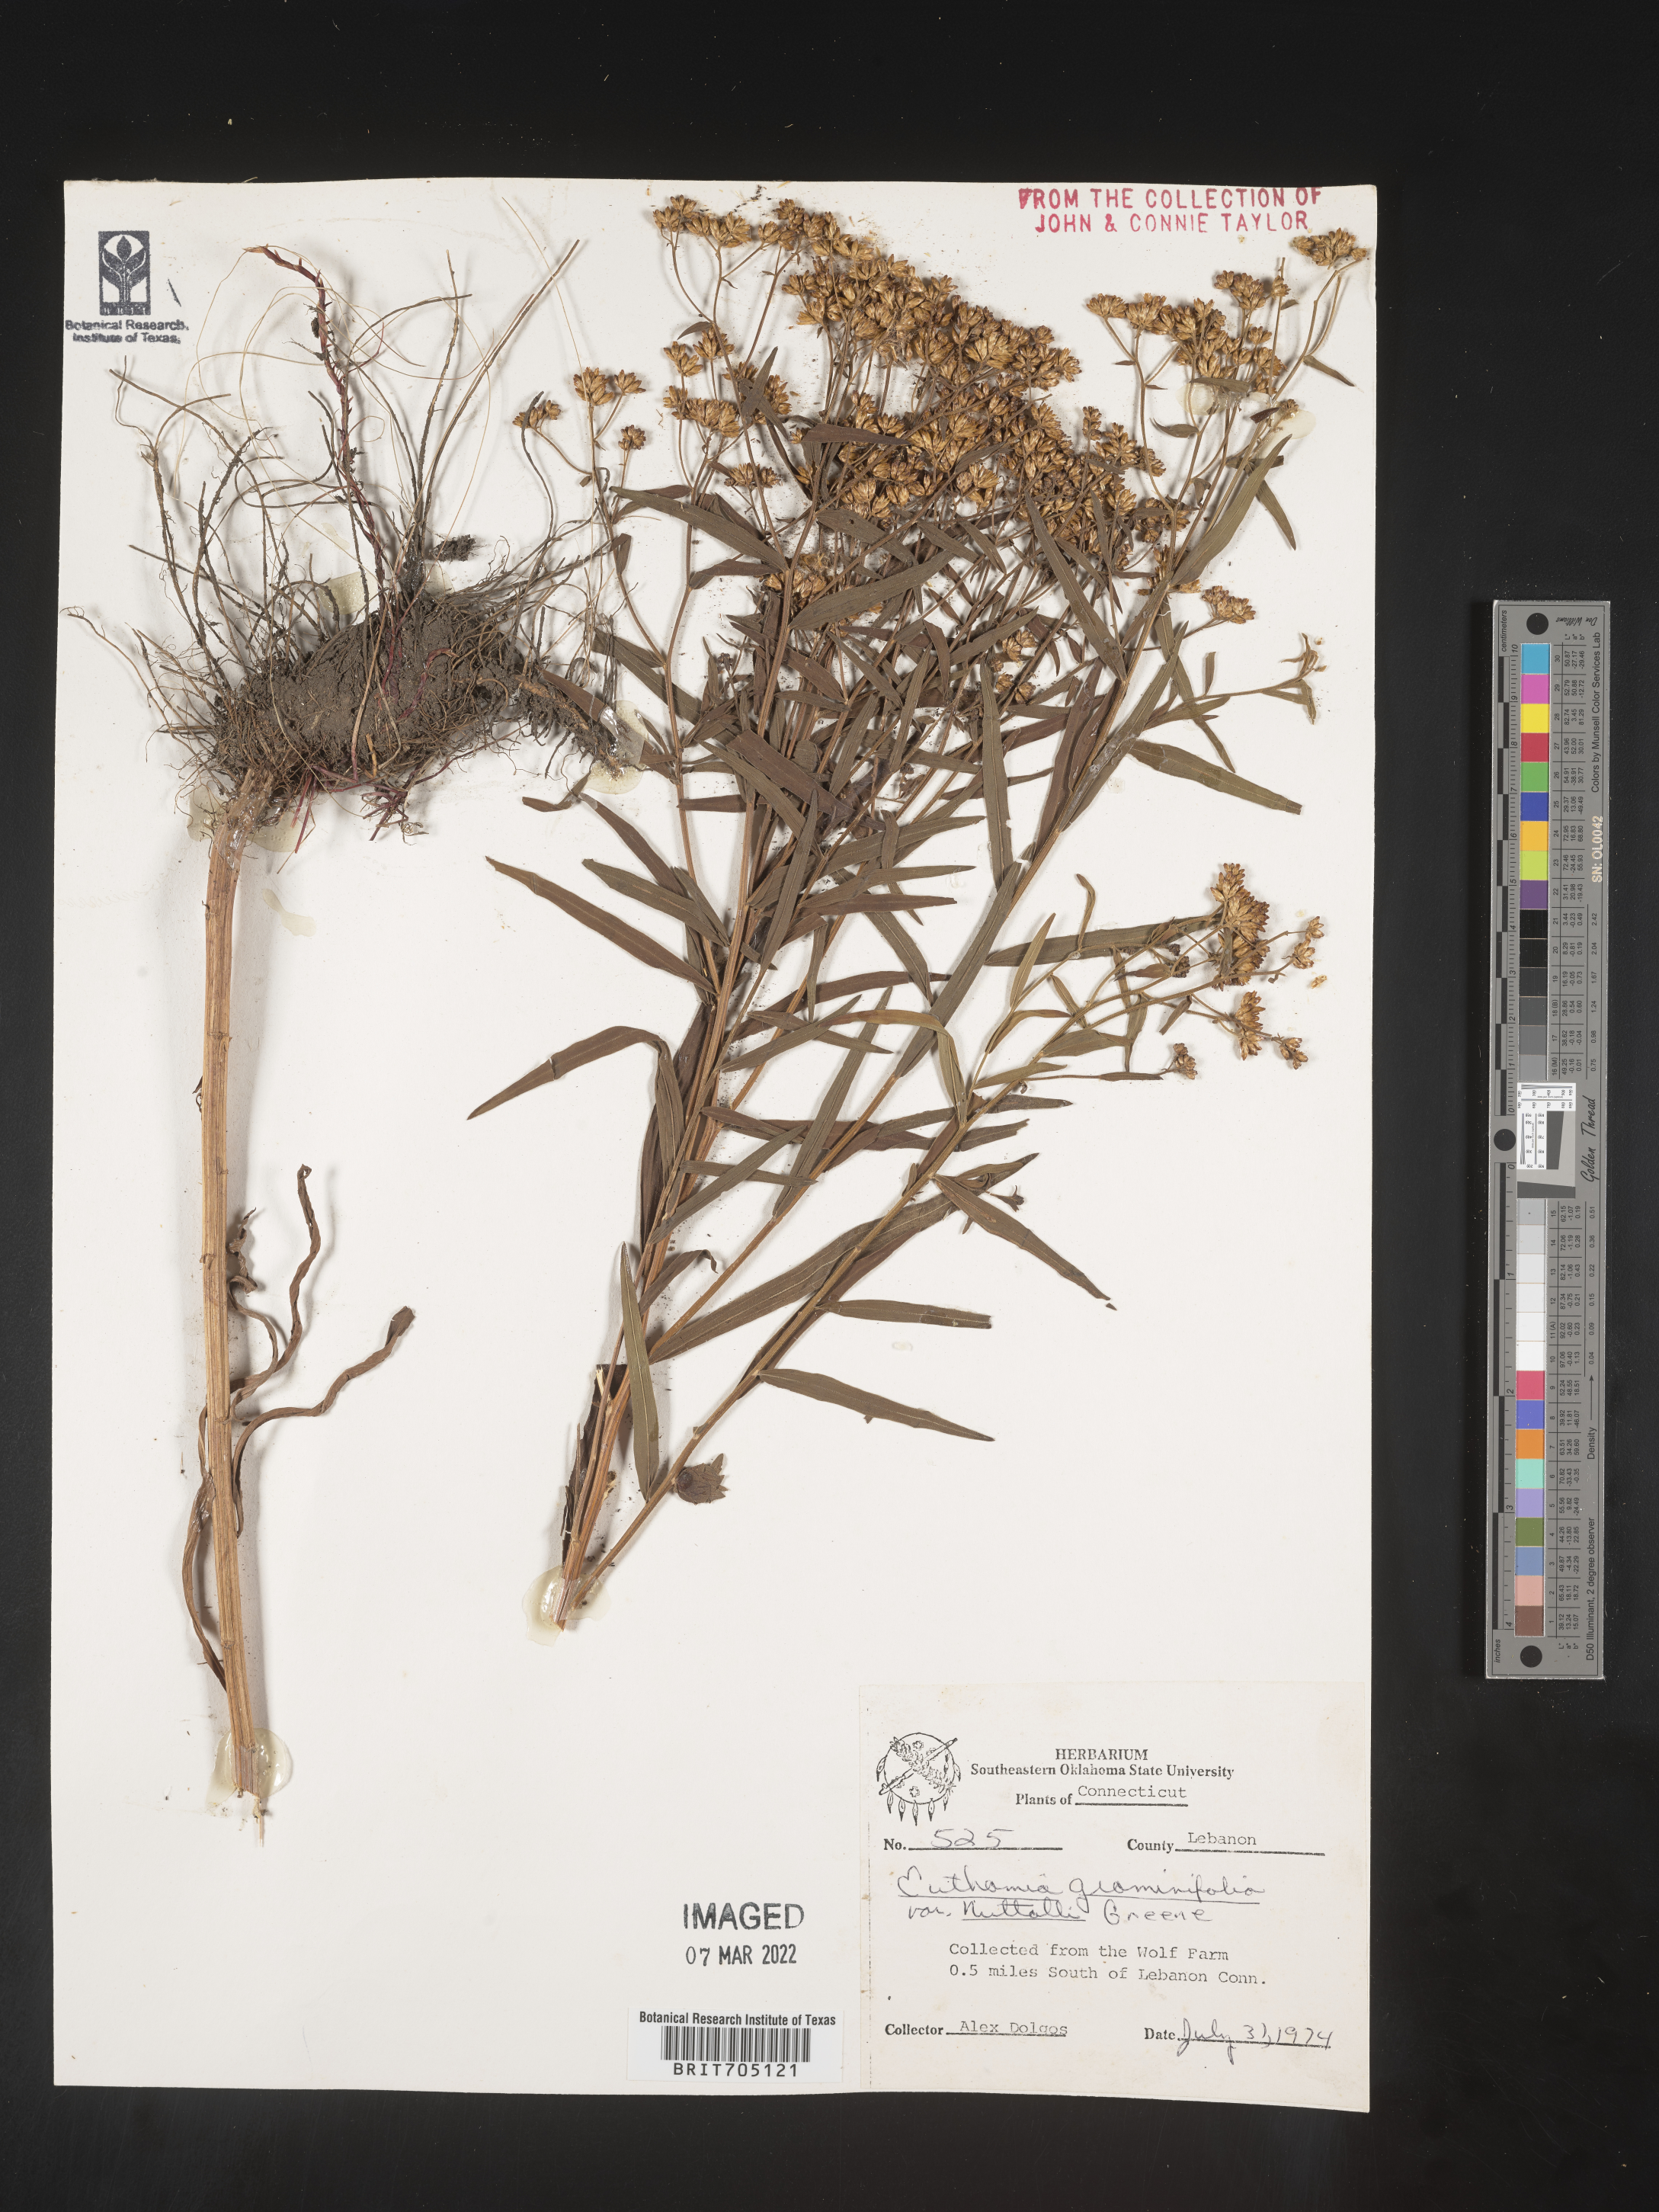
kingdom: Plantae
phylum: Tracheophyta
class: Magnoliopsida
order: Asterales
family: Asteraceae
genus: Euthamia
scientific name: Euthamia graminifolia
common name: Common goldentop
